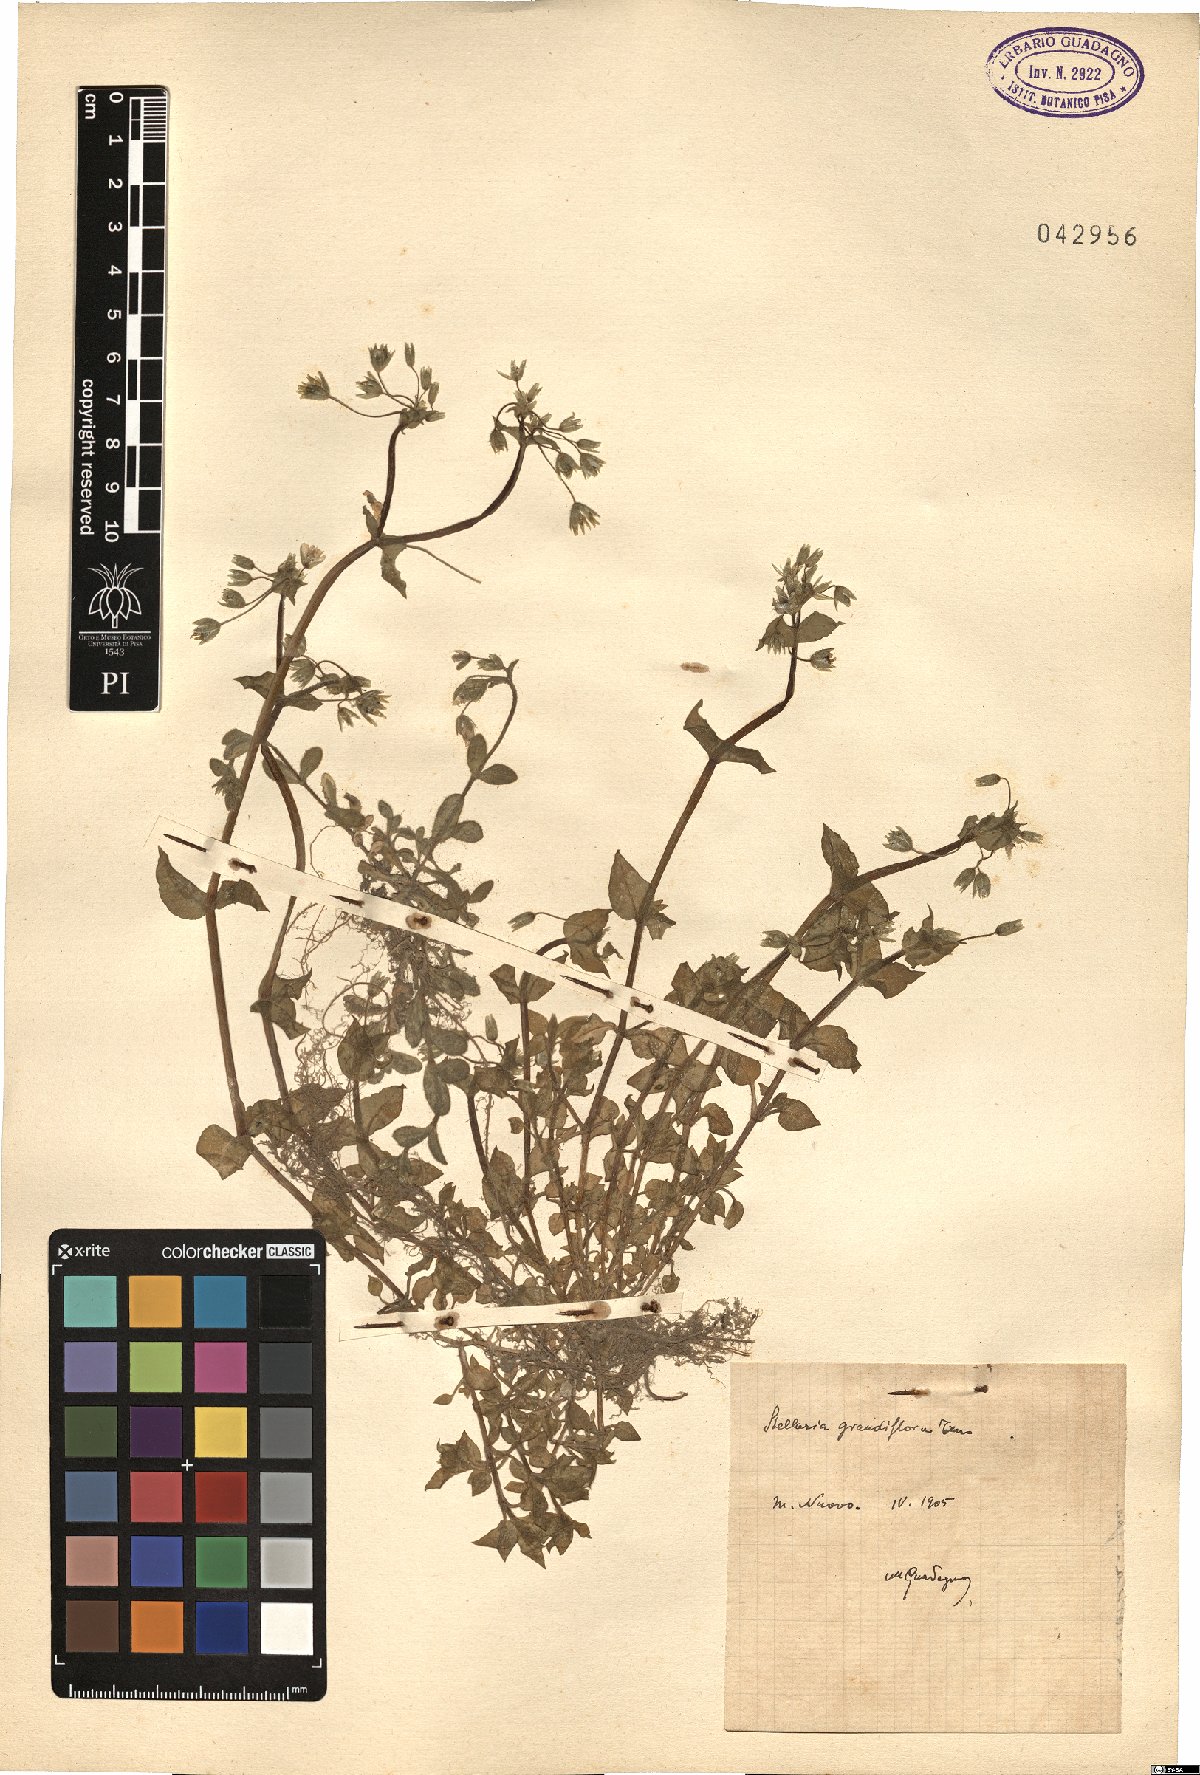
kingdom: Plantae
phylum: Tracheophyta
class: Magnoliopsida
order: Caryophyllales
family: Caryophyllaceae
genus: Stellaria
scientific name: Stellaria
